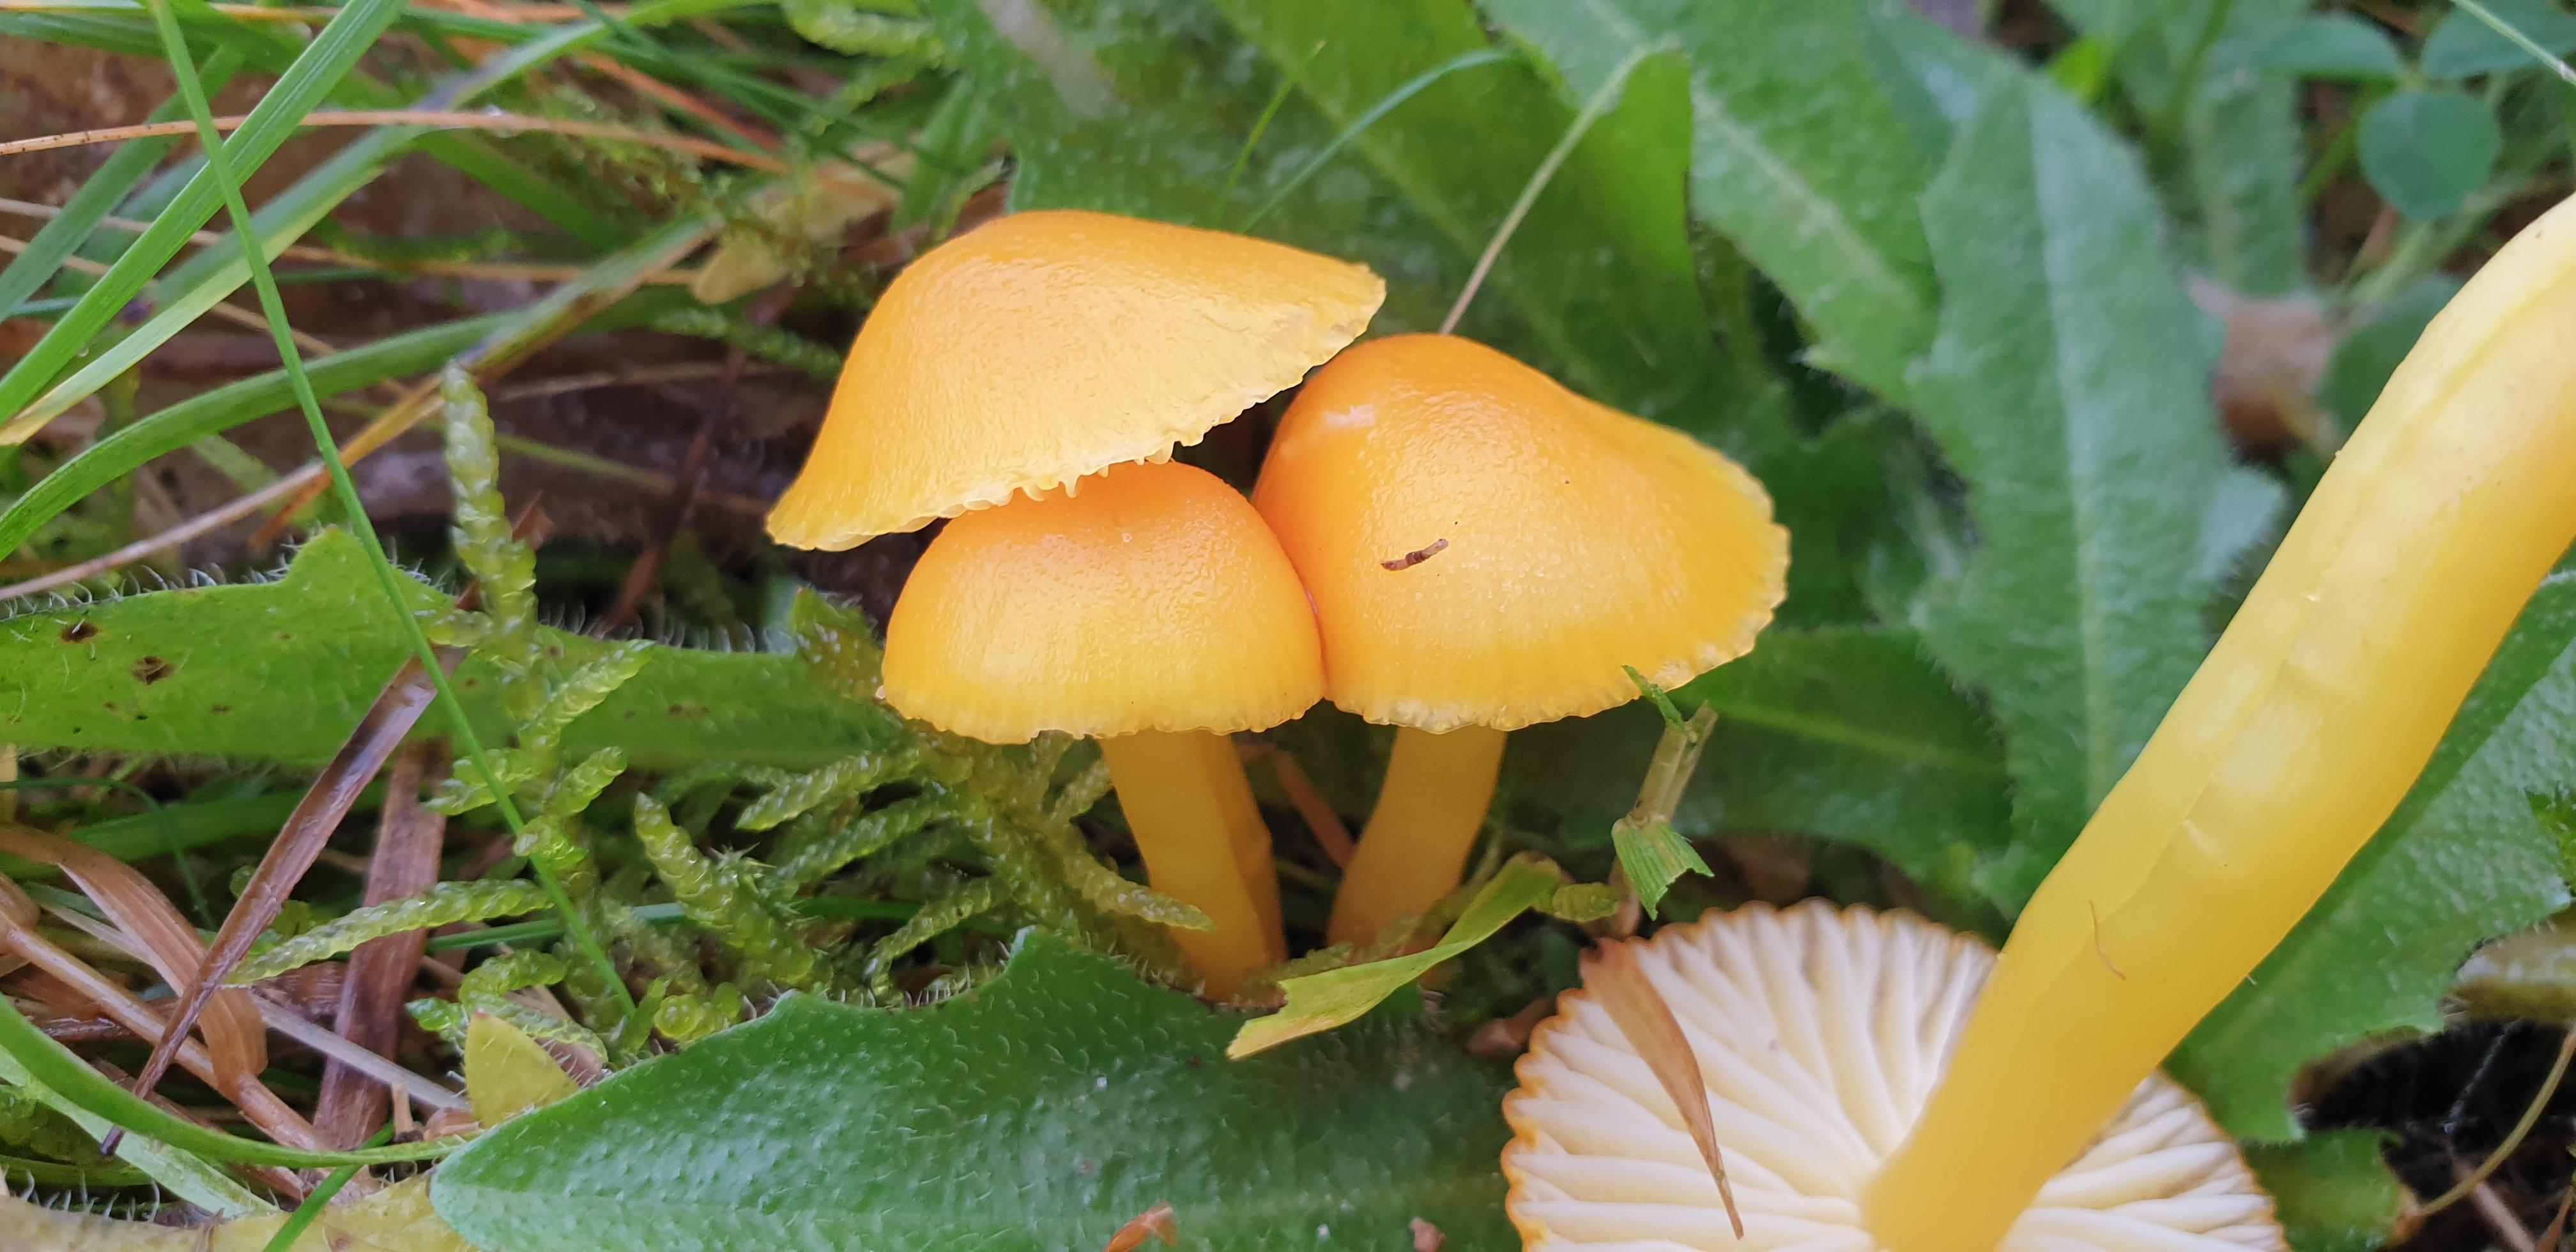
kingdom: Fungi
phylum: Basidiomycota
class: Agaricomycetes
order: Agaricales
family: Hygrophoraceae
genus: Hygrocybe
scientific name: Hygrocybe ceracea
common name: voksgul vokshat
